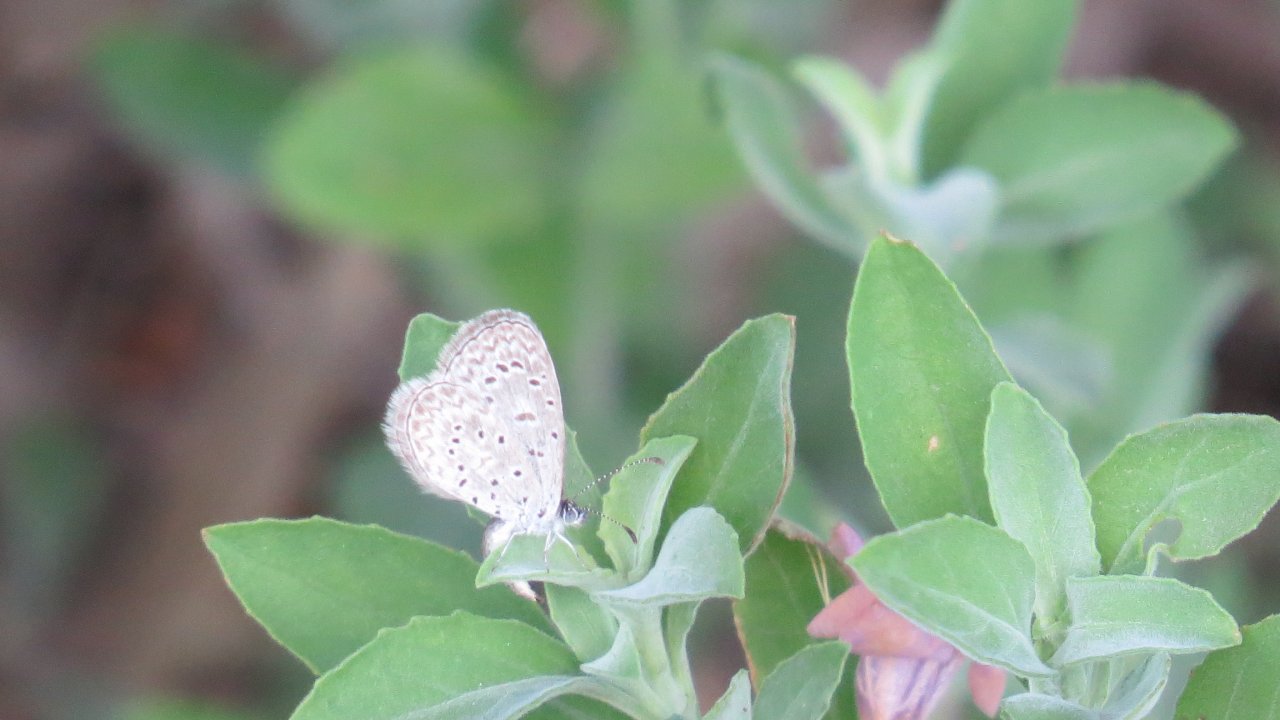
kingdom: Animalia
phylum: Arthropoda
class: Insecta
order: Lepidoptera
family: Lycaenidae
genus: Lycaena
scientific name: Lycaena cyna
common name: Cyna Blue
